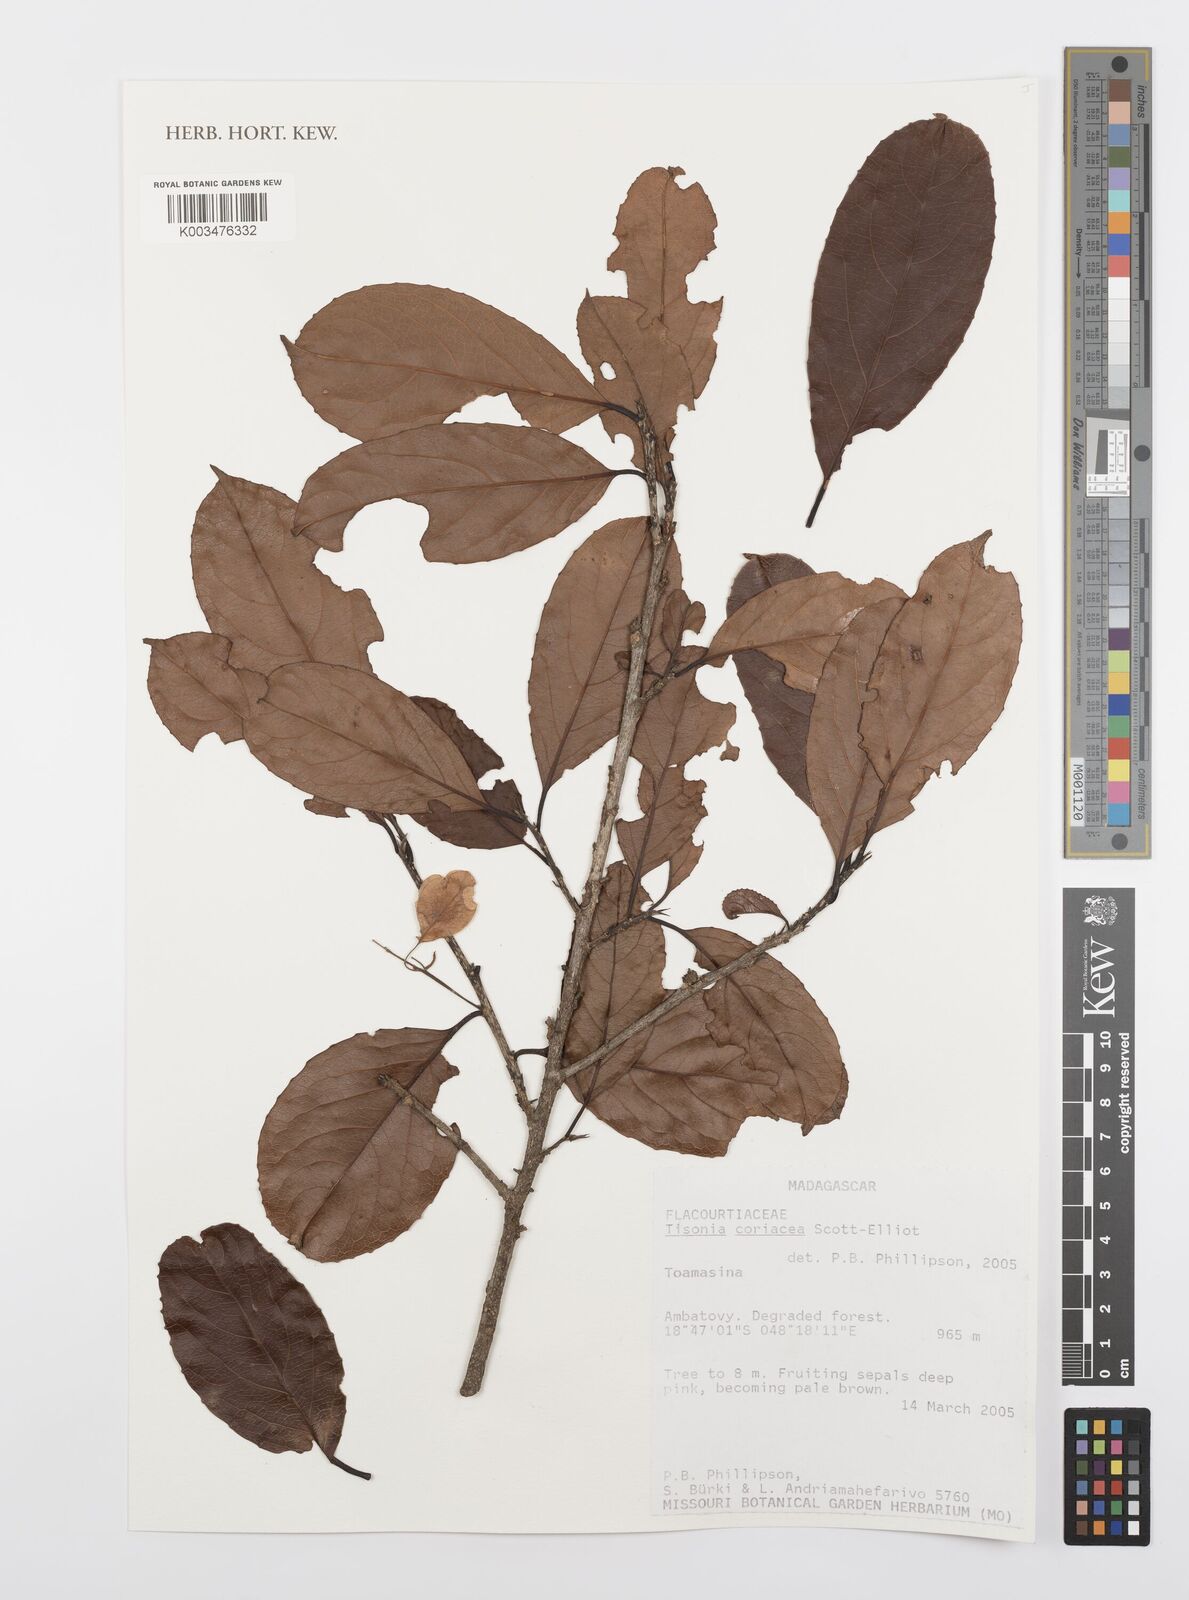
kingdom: Plantae
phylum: Tracheophyta
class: Magnoliopsida
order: Malpighiales
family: Salicaceae
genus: Tisonia
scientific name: Tisonia coriacea
